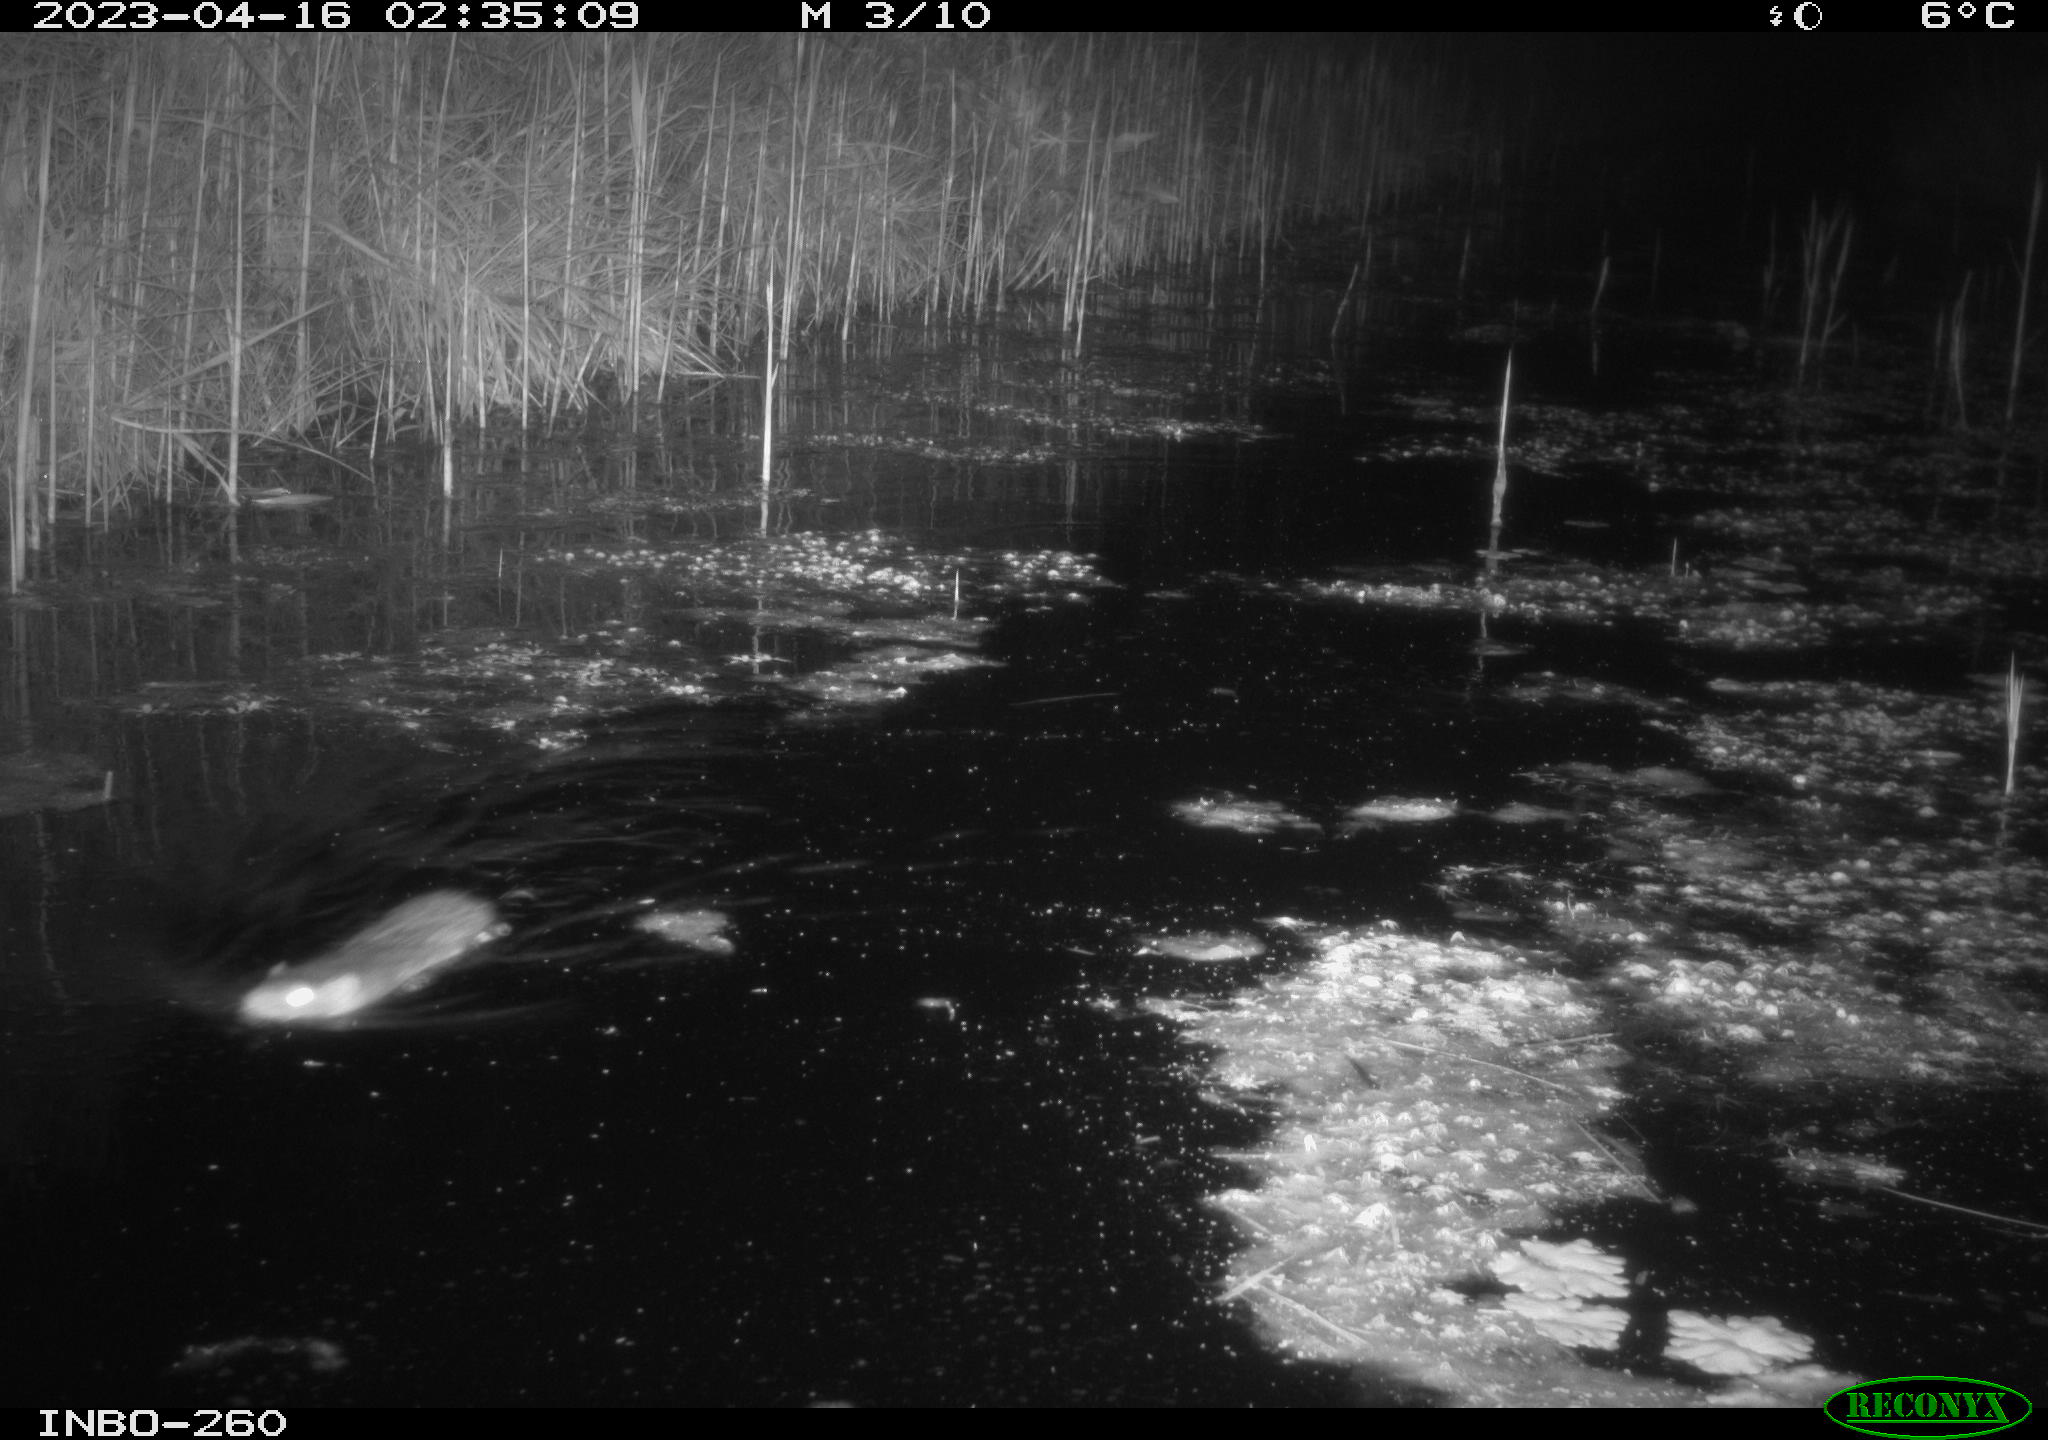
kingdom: Animalia
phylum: Chordata
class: Mammalia
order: Rodentia
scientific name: Rodentia
